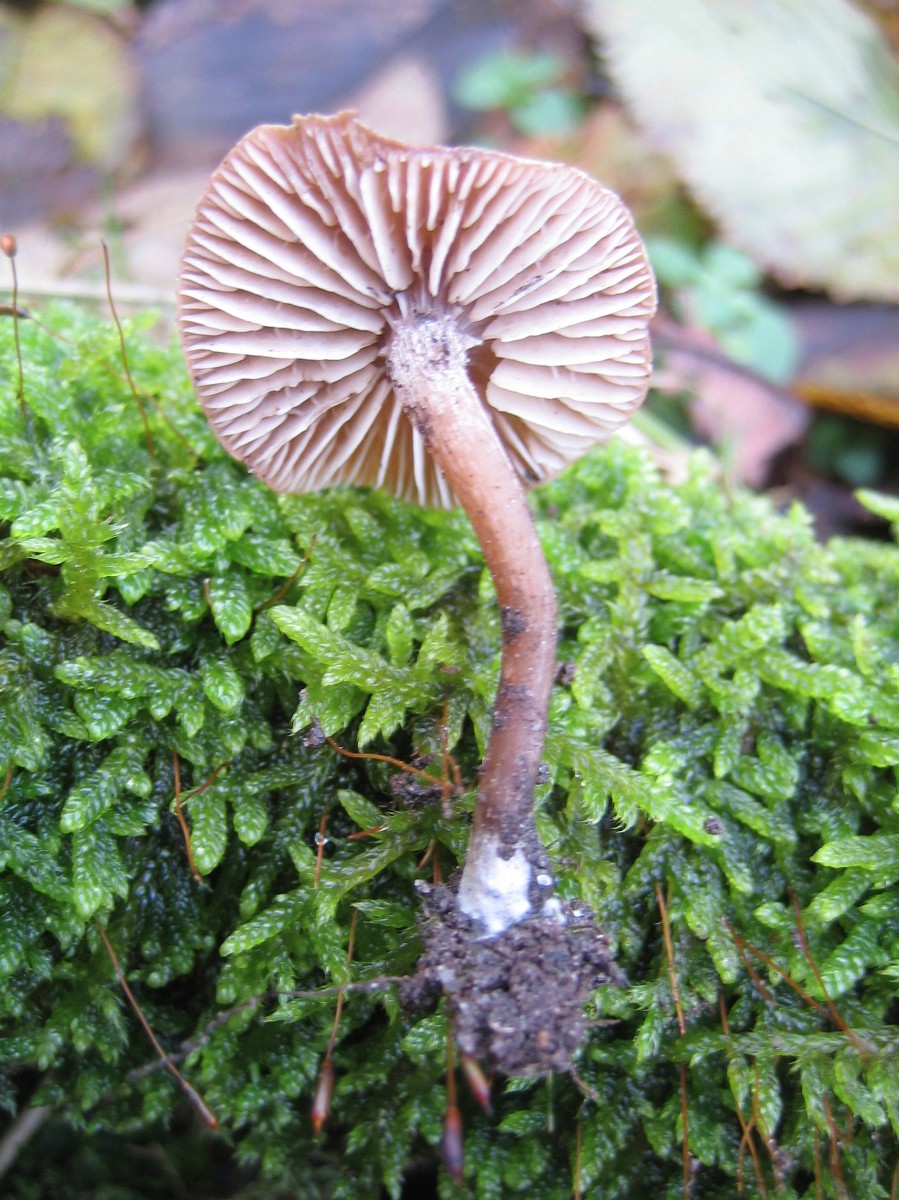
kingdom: Fungi
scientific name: Fungi
